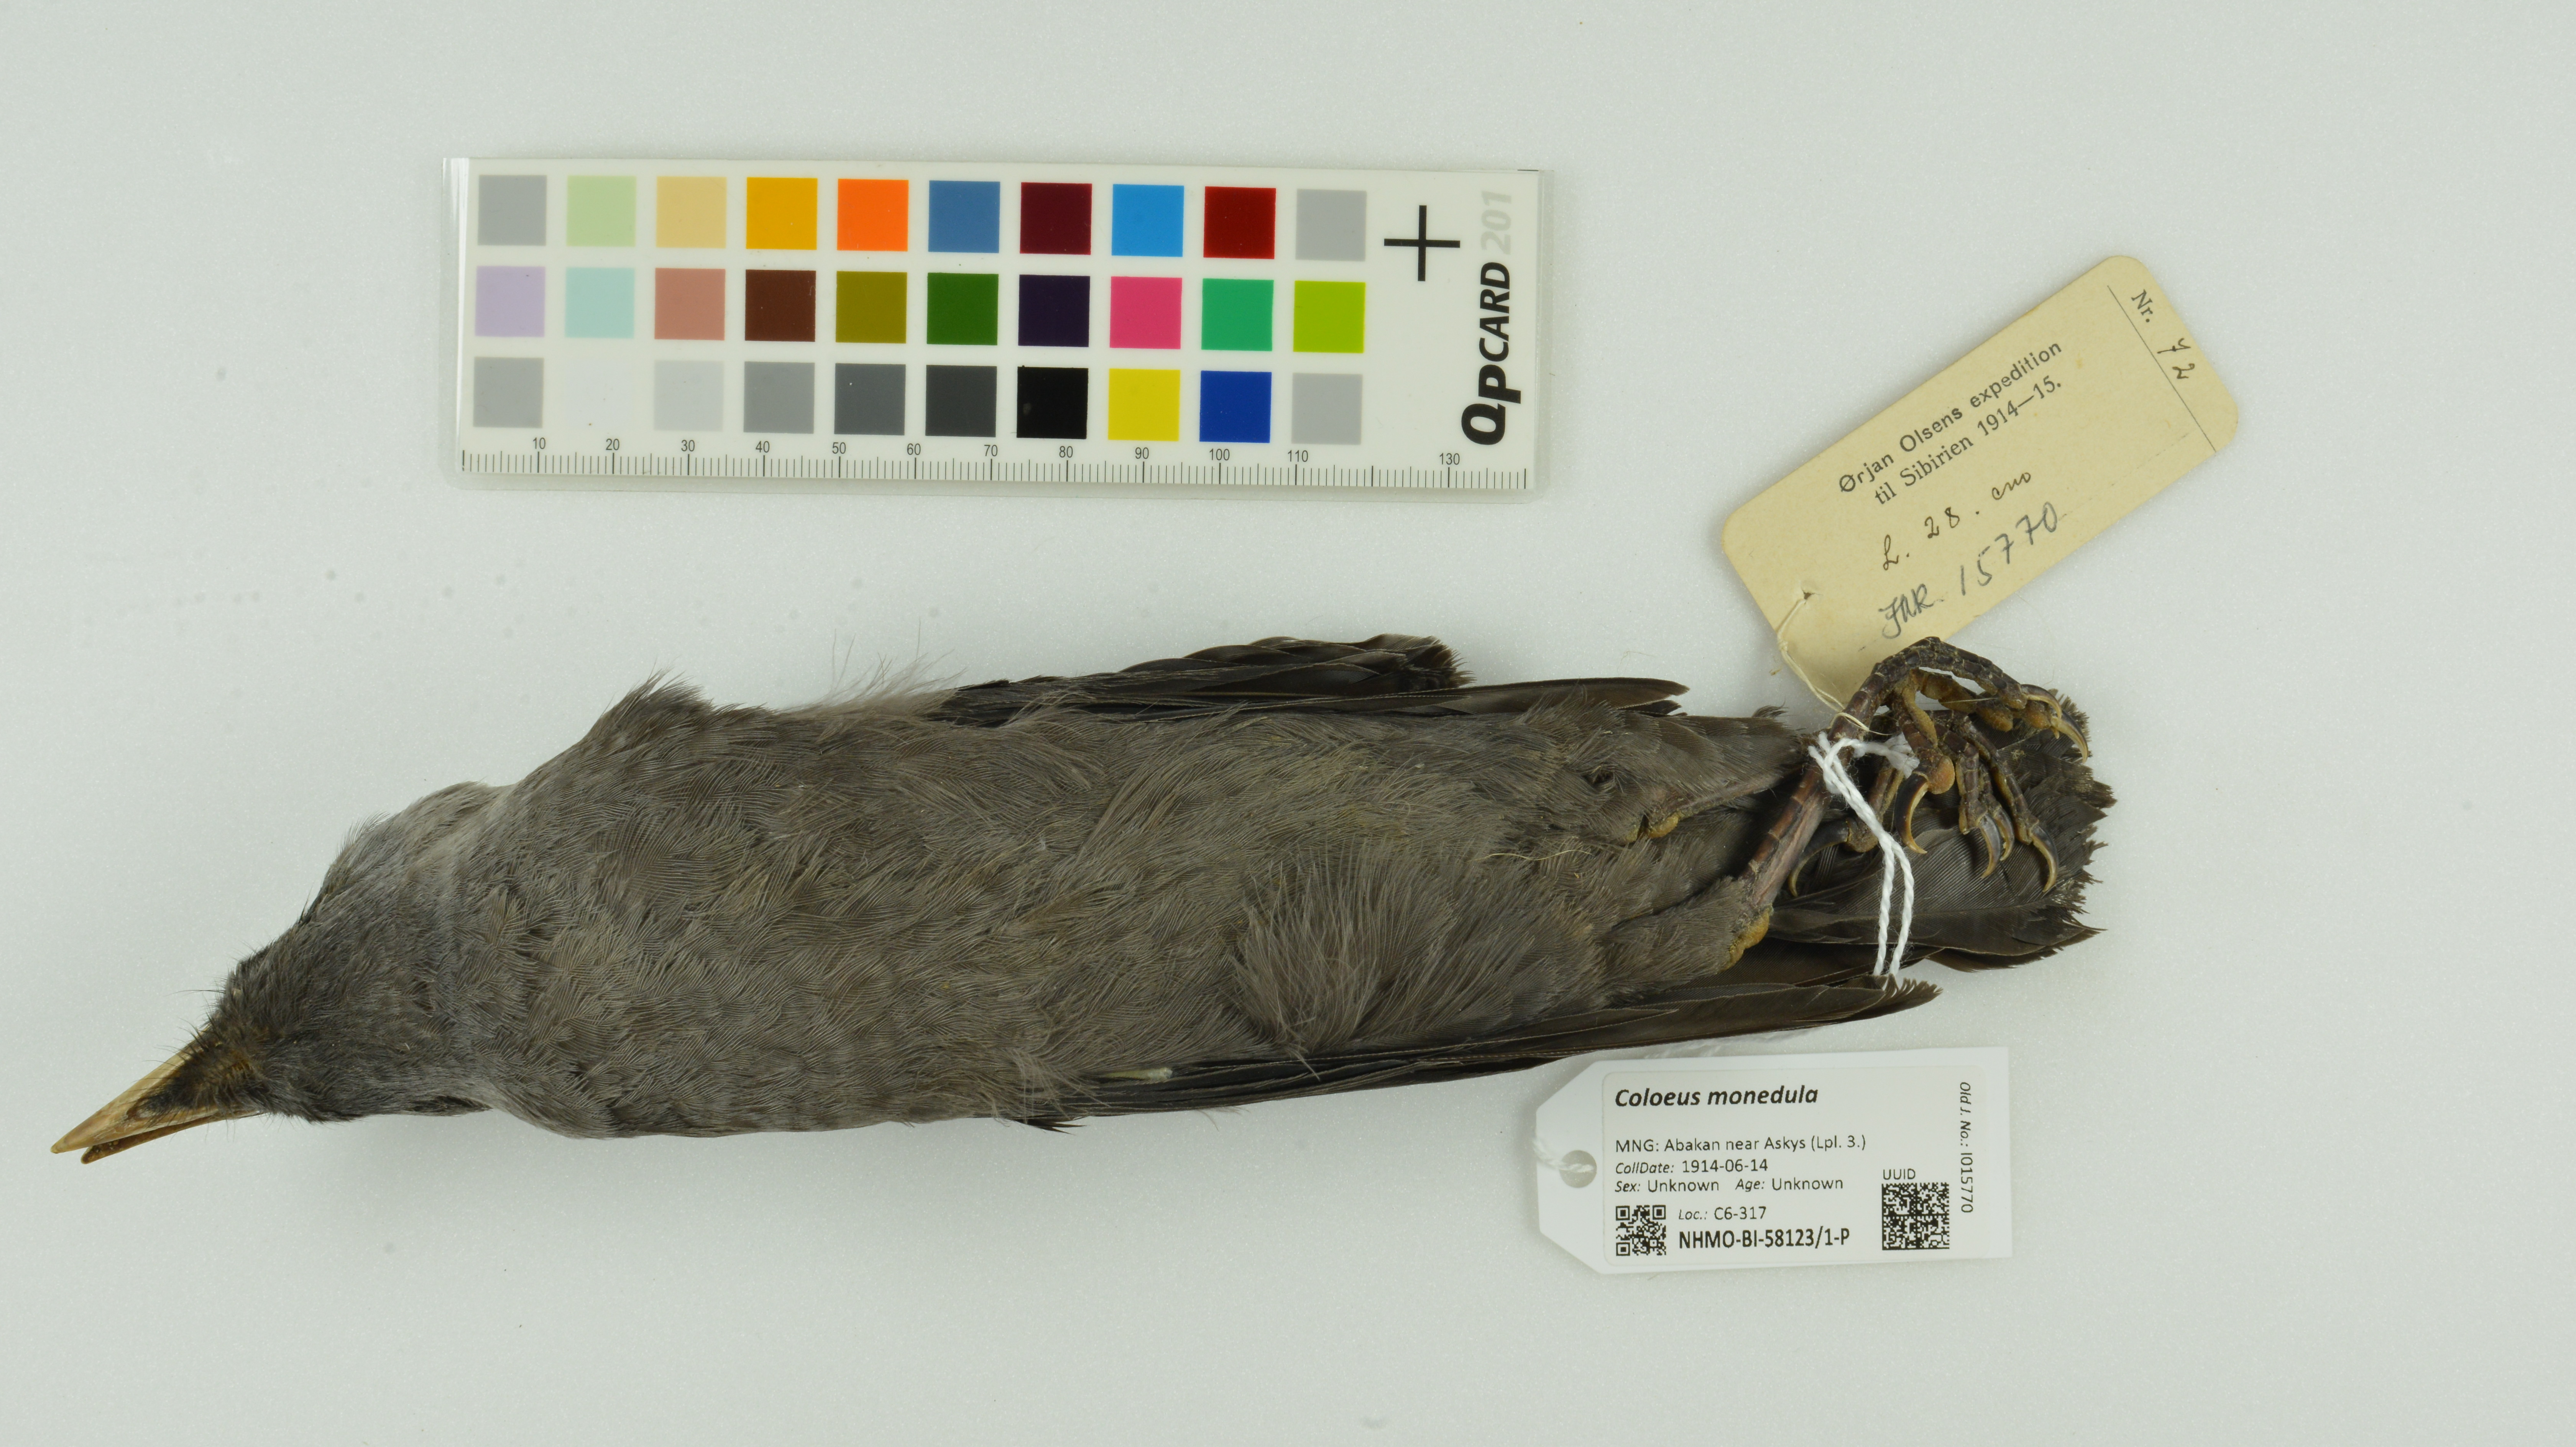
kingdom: Animalia
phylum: Chordata
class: Aves
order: Passeriformes
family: Corvidae
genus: Coloeus
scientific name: Coloeus monedula
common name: Western jackdaw
